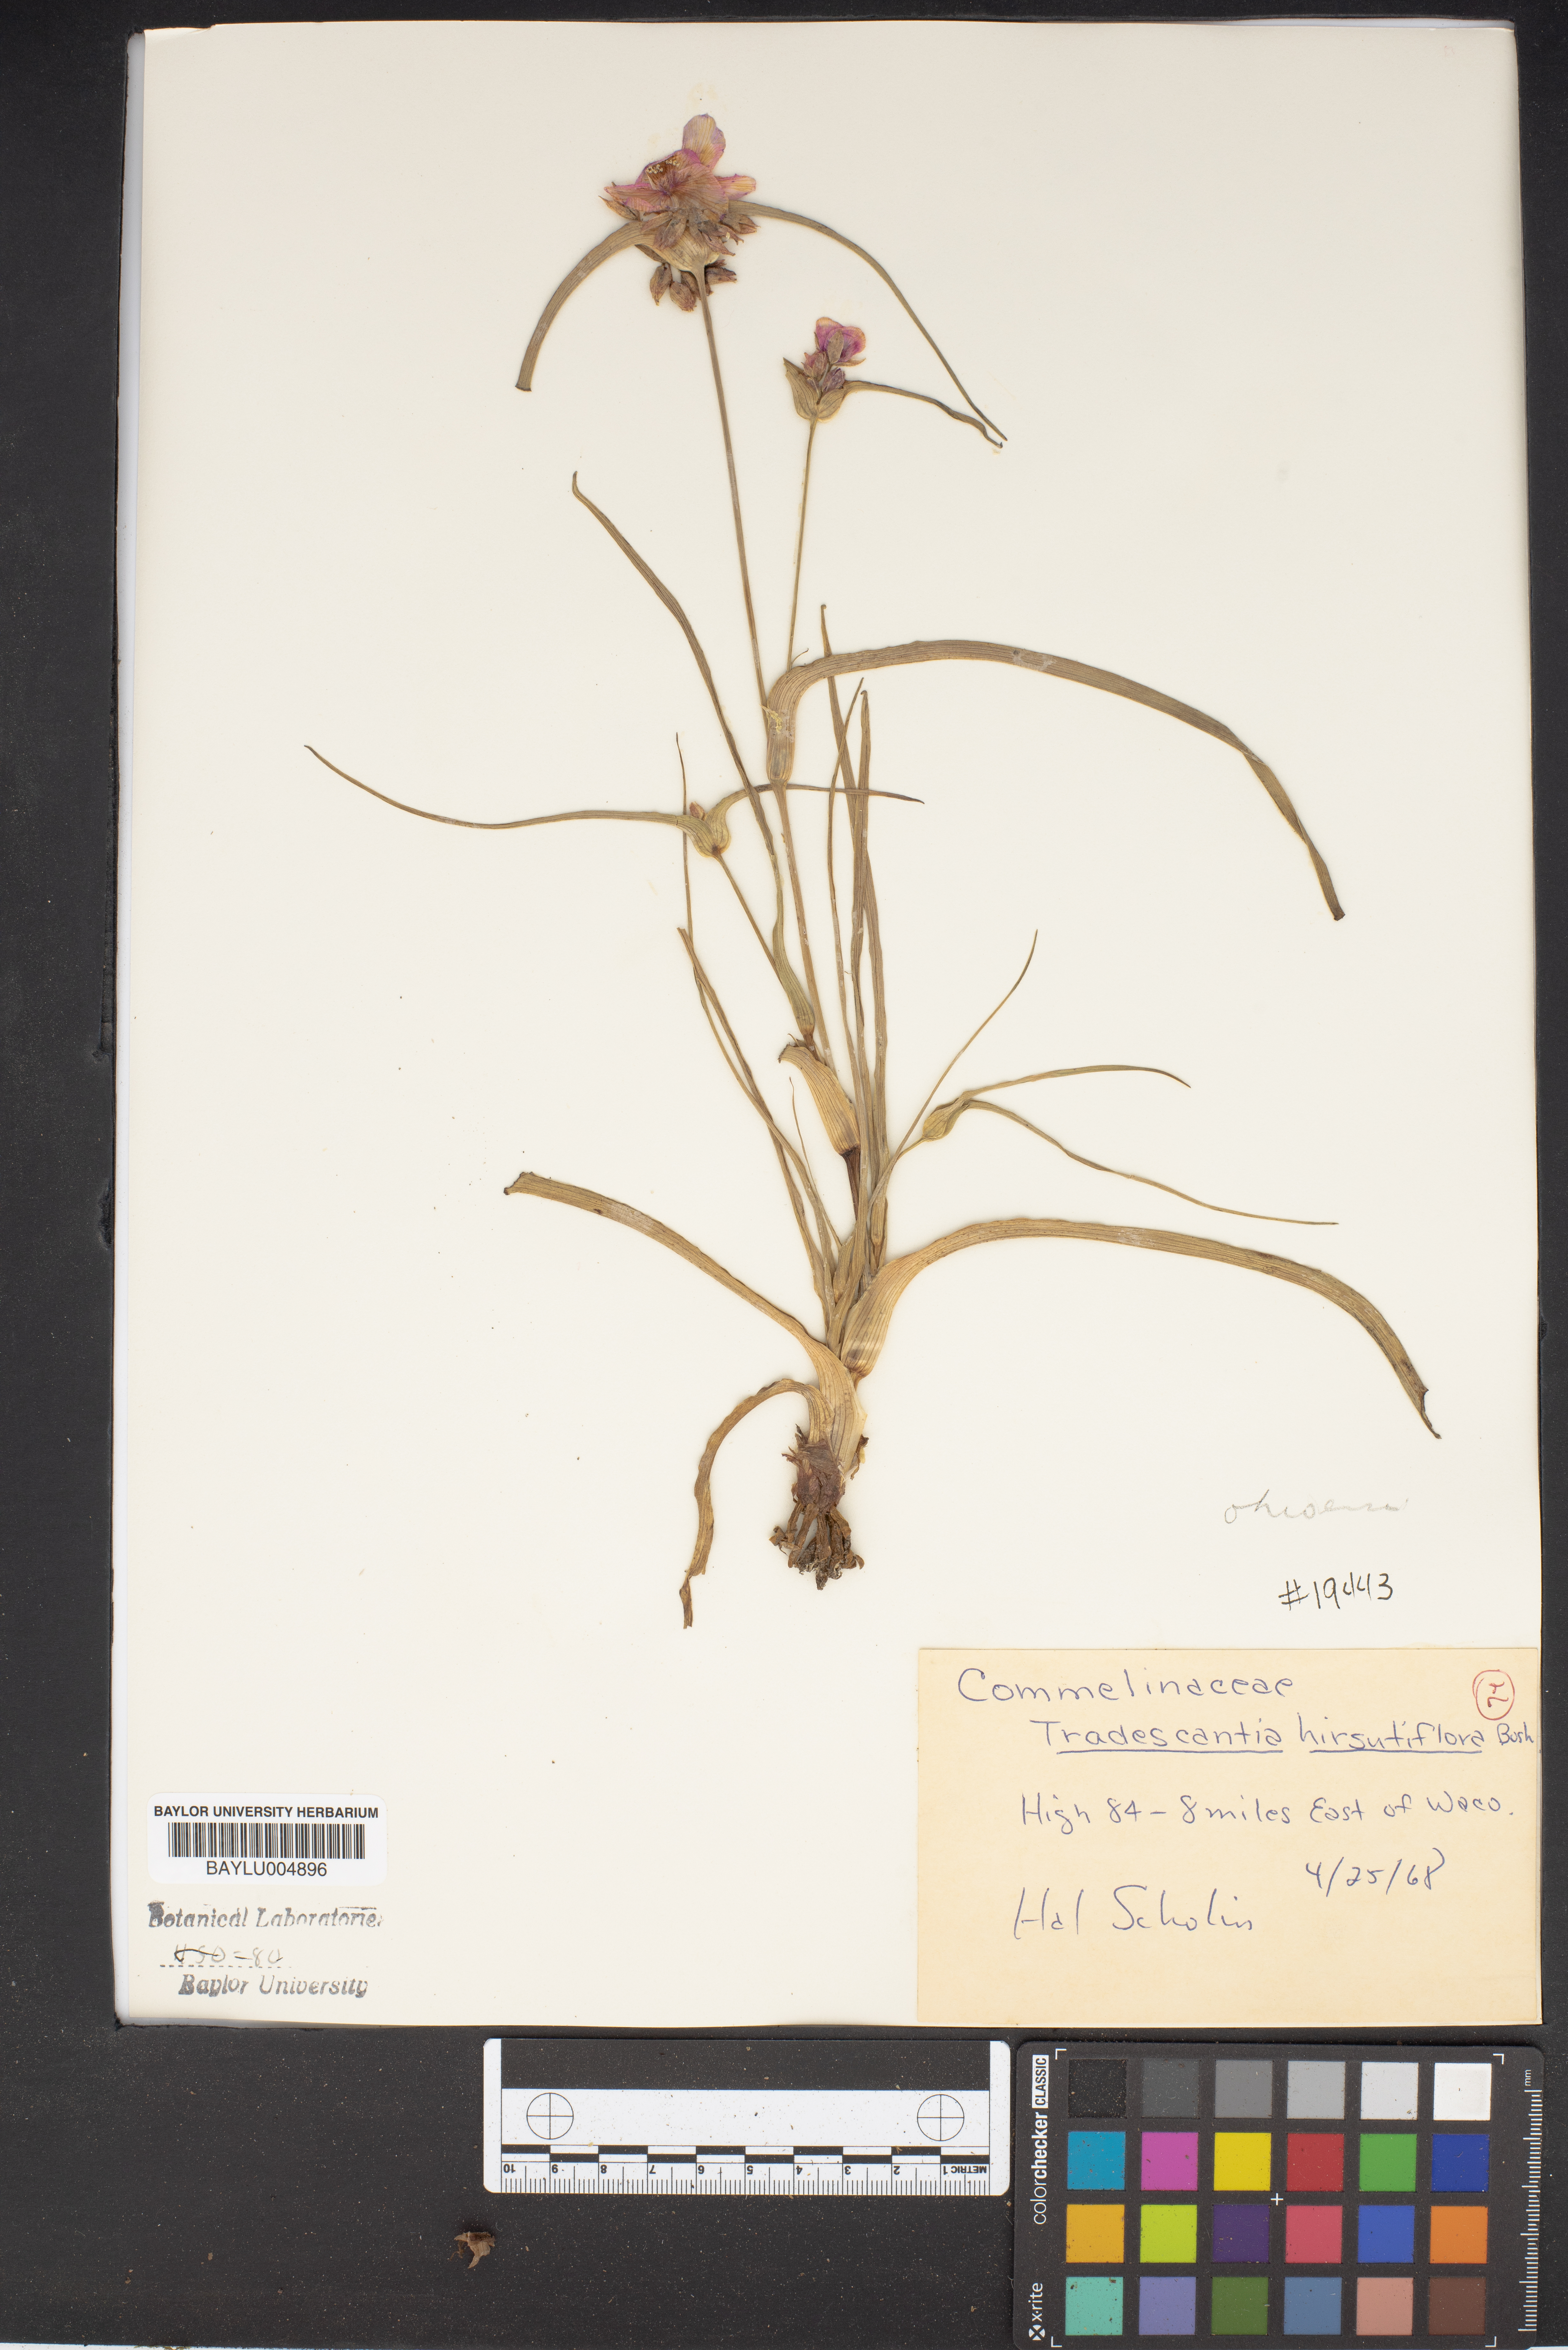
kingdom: Plantae
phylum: Tracheophyta
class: Liliopsida
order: Commelinales
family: Commelinaceae
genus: Tradescantia
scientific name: Tradescantia hirsutiflora
